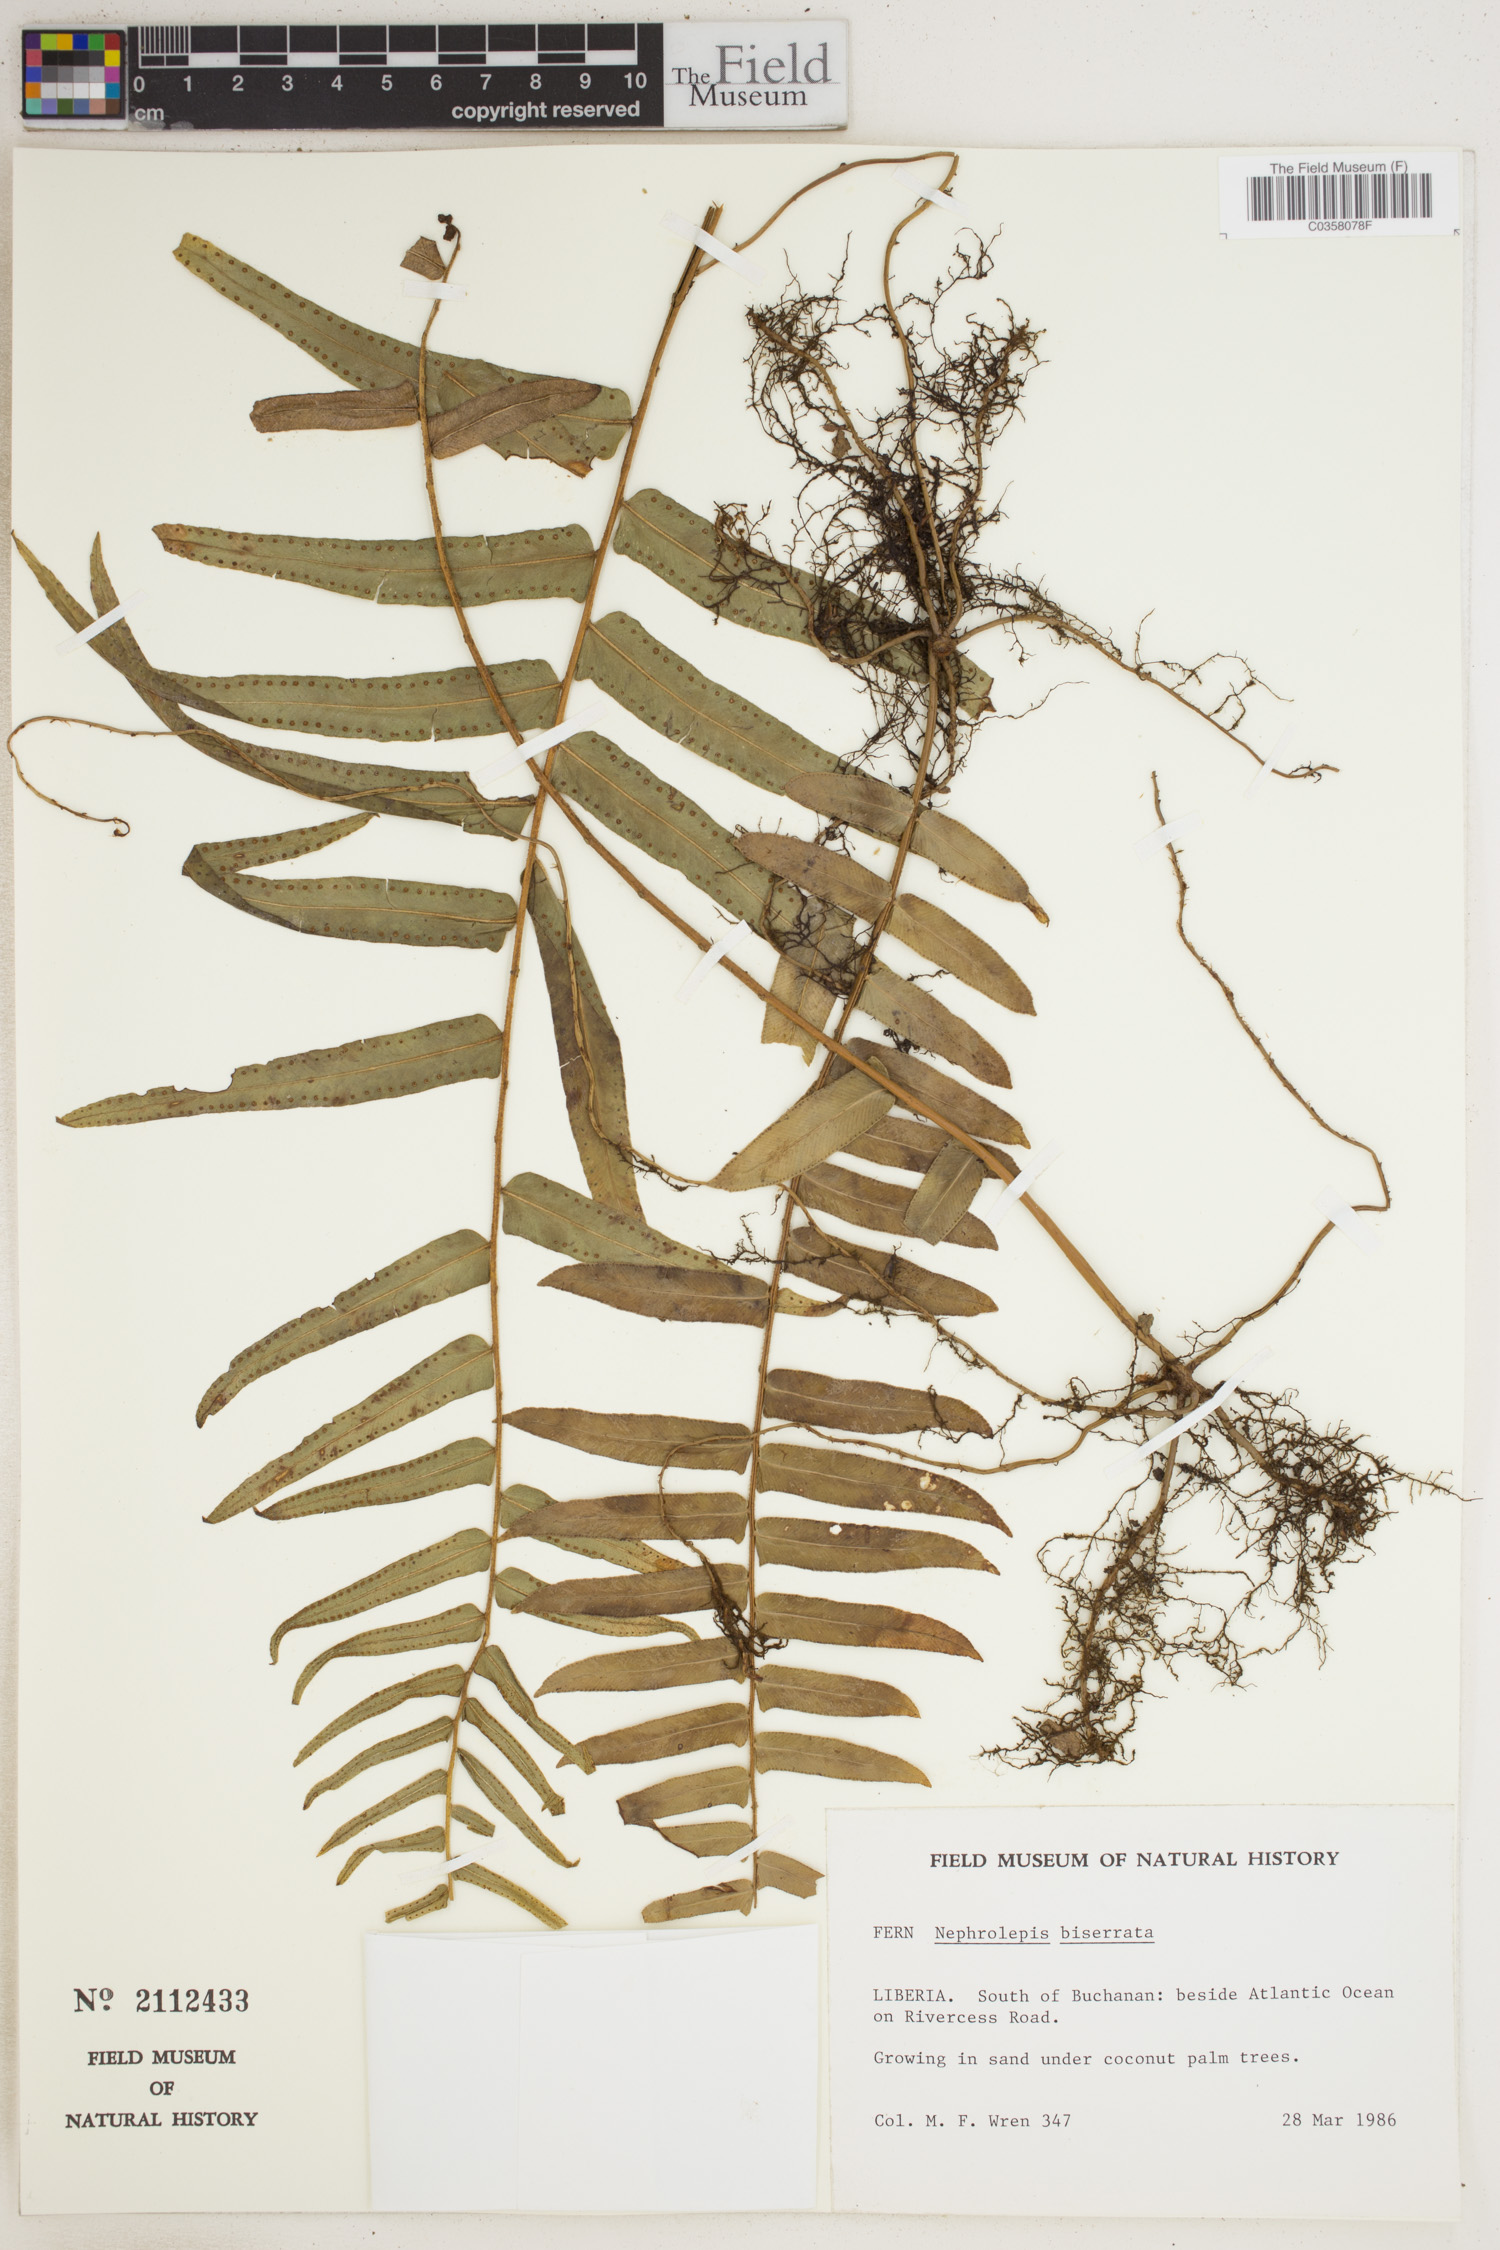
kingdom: Plantae
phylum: Tracheophyta
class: Polypodiopsida
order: Polypodiales
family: Nephrolepidaceae
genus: Nephrolepis
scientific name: Nephrolepis biserrata
